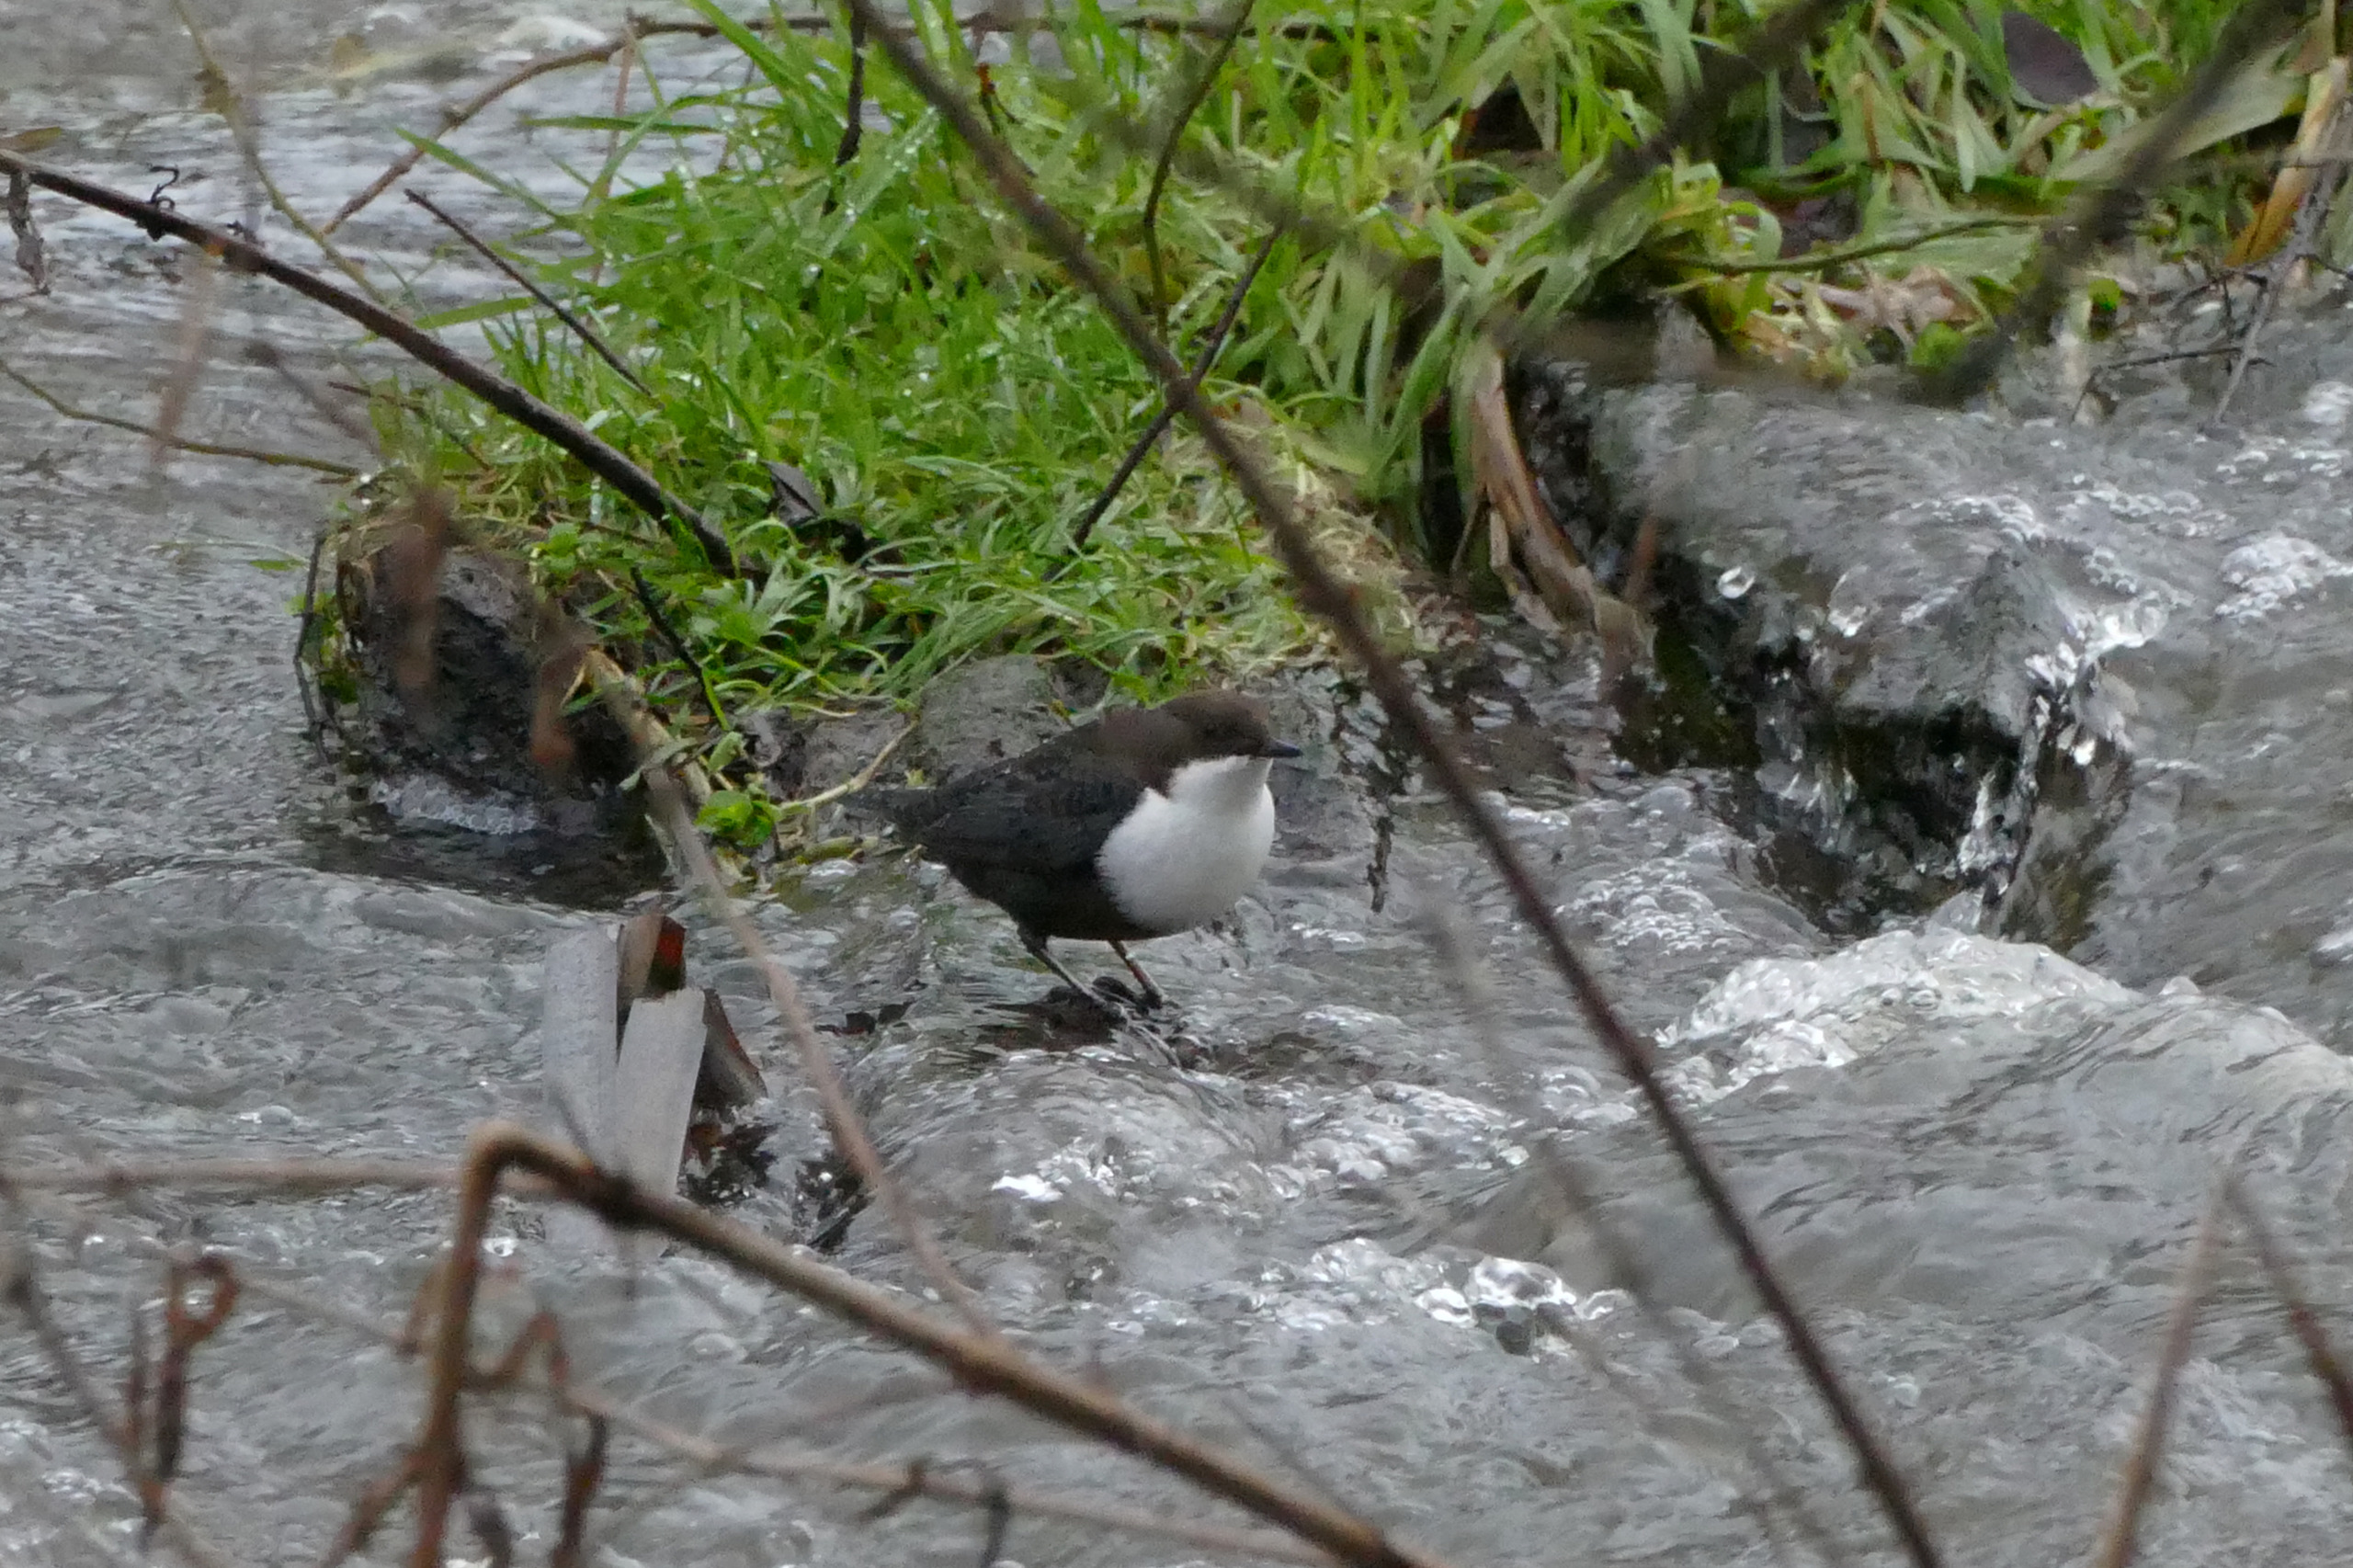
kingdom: Animalia
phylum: Chordata
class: Aves
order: Passeriformes
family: Cinclidae
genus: Cinclus
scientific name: Cinclus cinclus
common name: Vandstær
